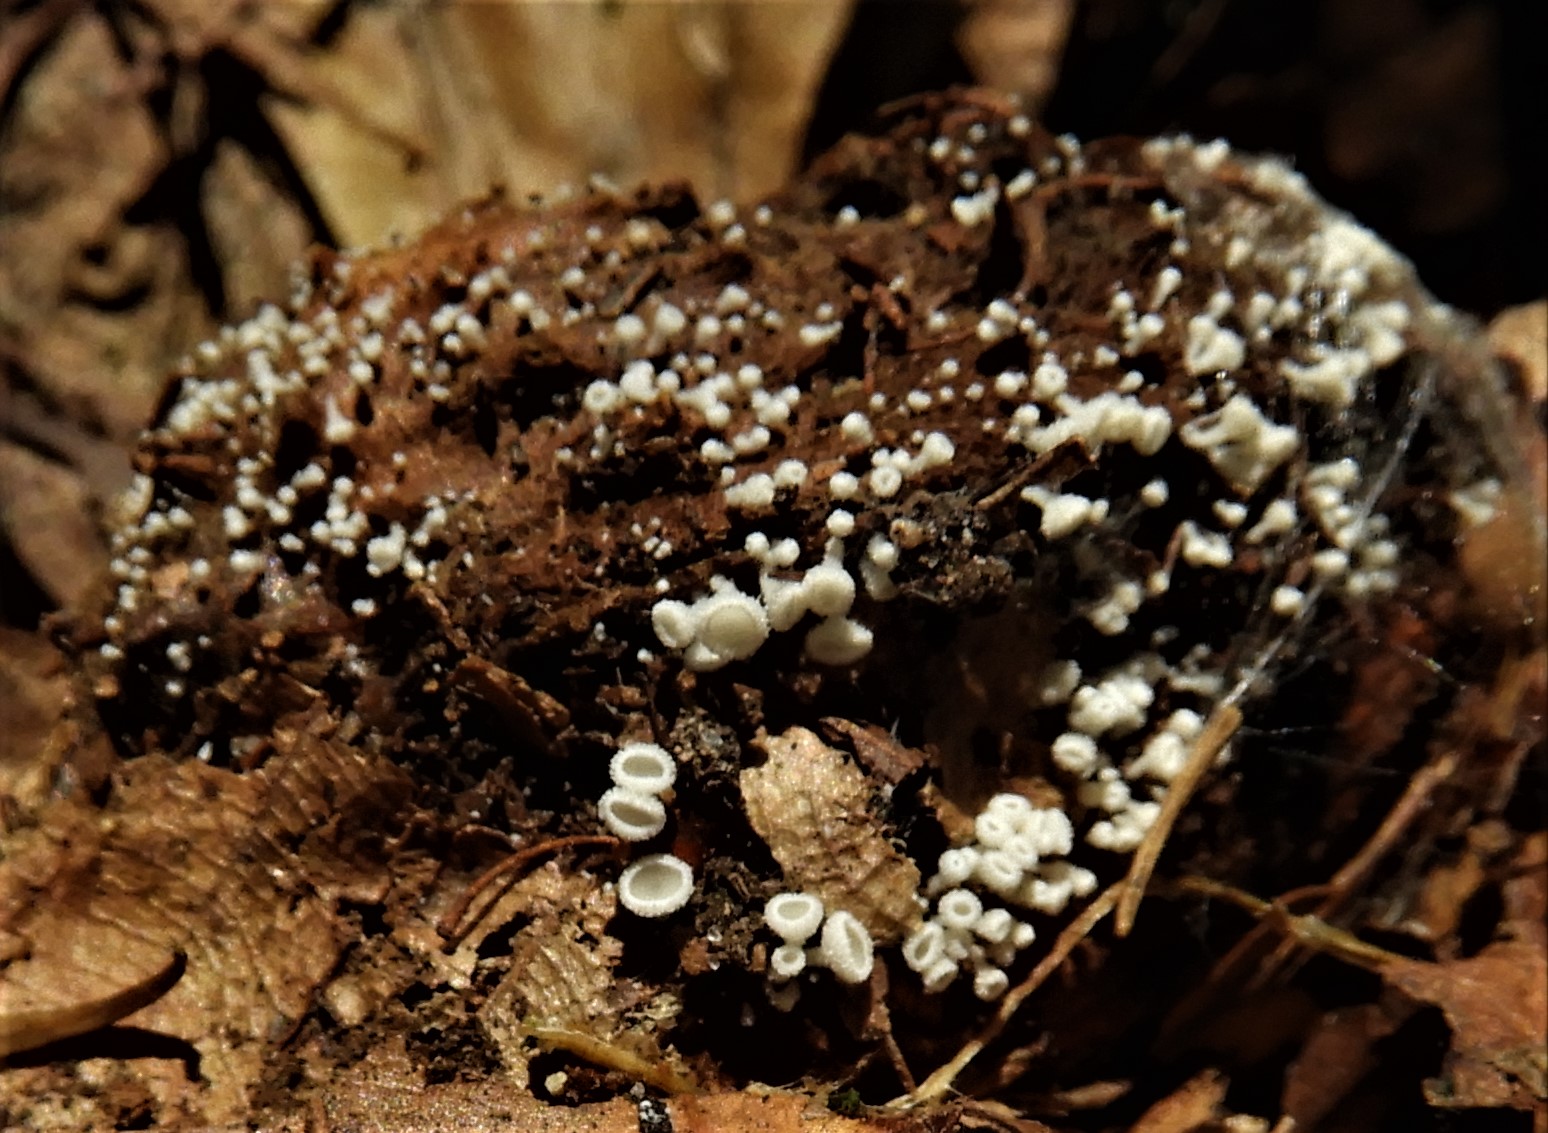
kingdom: Fungi
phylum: Ascomycota
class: Leotiomycetes
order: Helotiales
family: Lachnaceae
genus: Lachnum
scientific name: Lachnum virgineum
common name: jomfru-frynseskive
